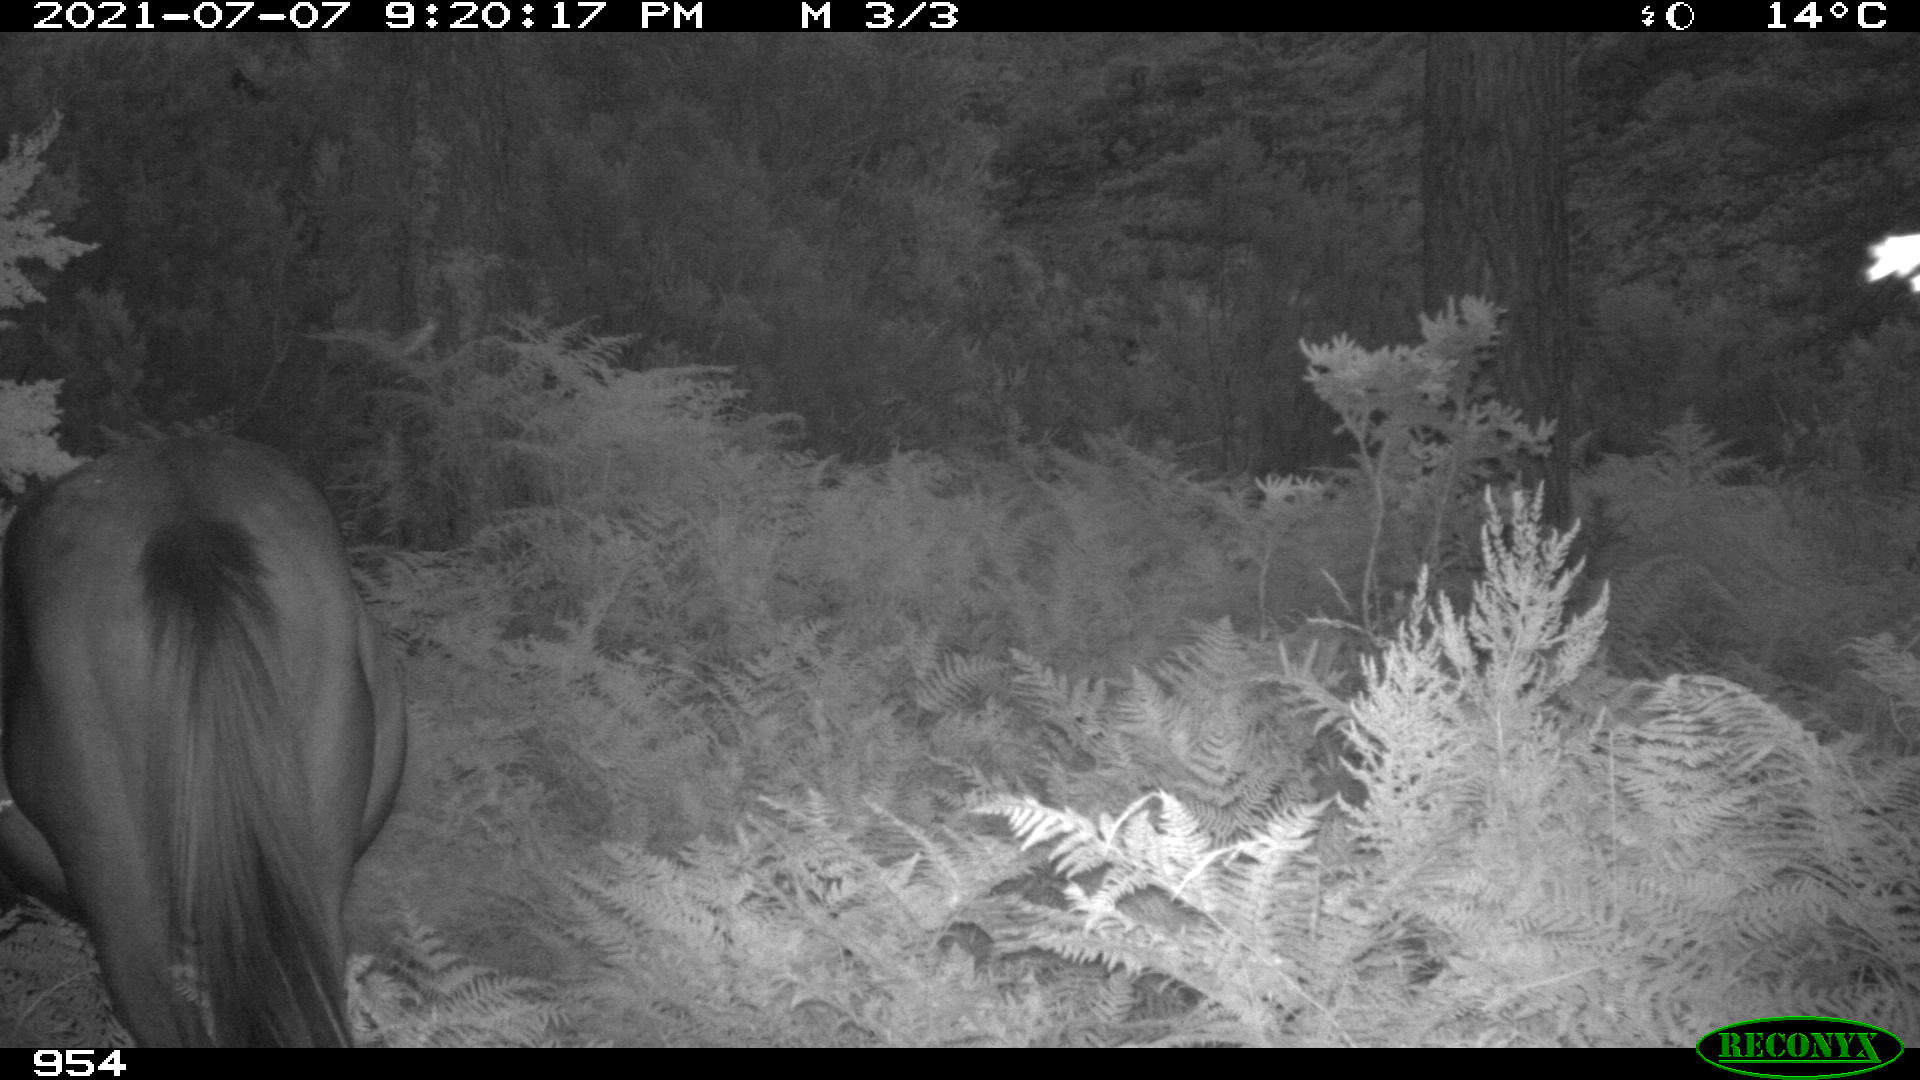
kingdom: Animalia
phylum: Chordata
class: Mammalia
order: Perissodactyla
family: Equidae
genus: Equus
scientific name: Equus caballus
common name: Horse
